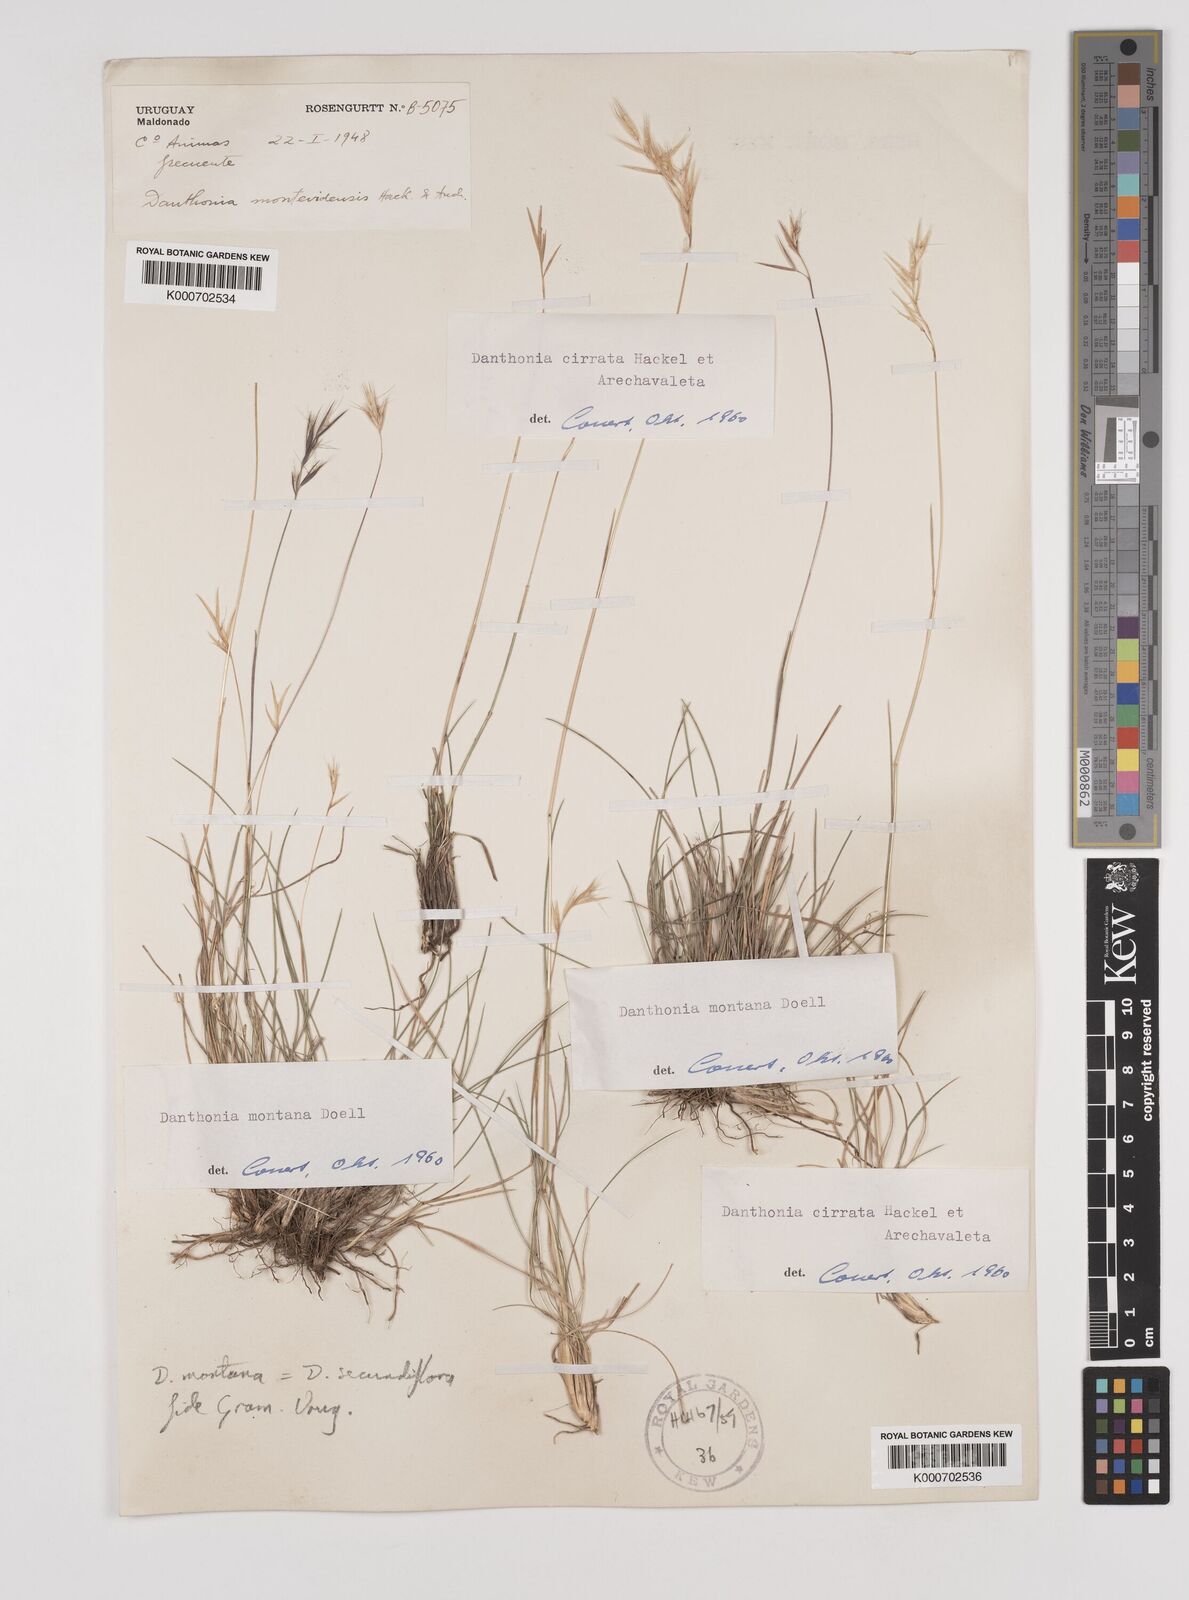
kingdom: Plantae
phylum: Tracheophyta
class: Liliopsida
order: Poales
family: Poaceae
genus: Danthonia
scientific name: Danthonia cirrata
